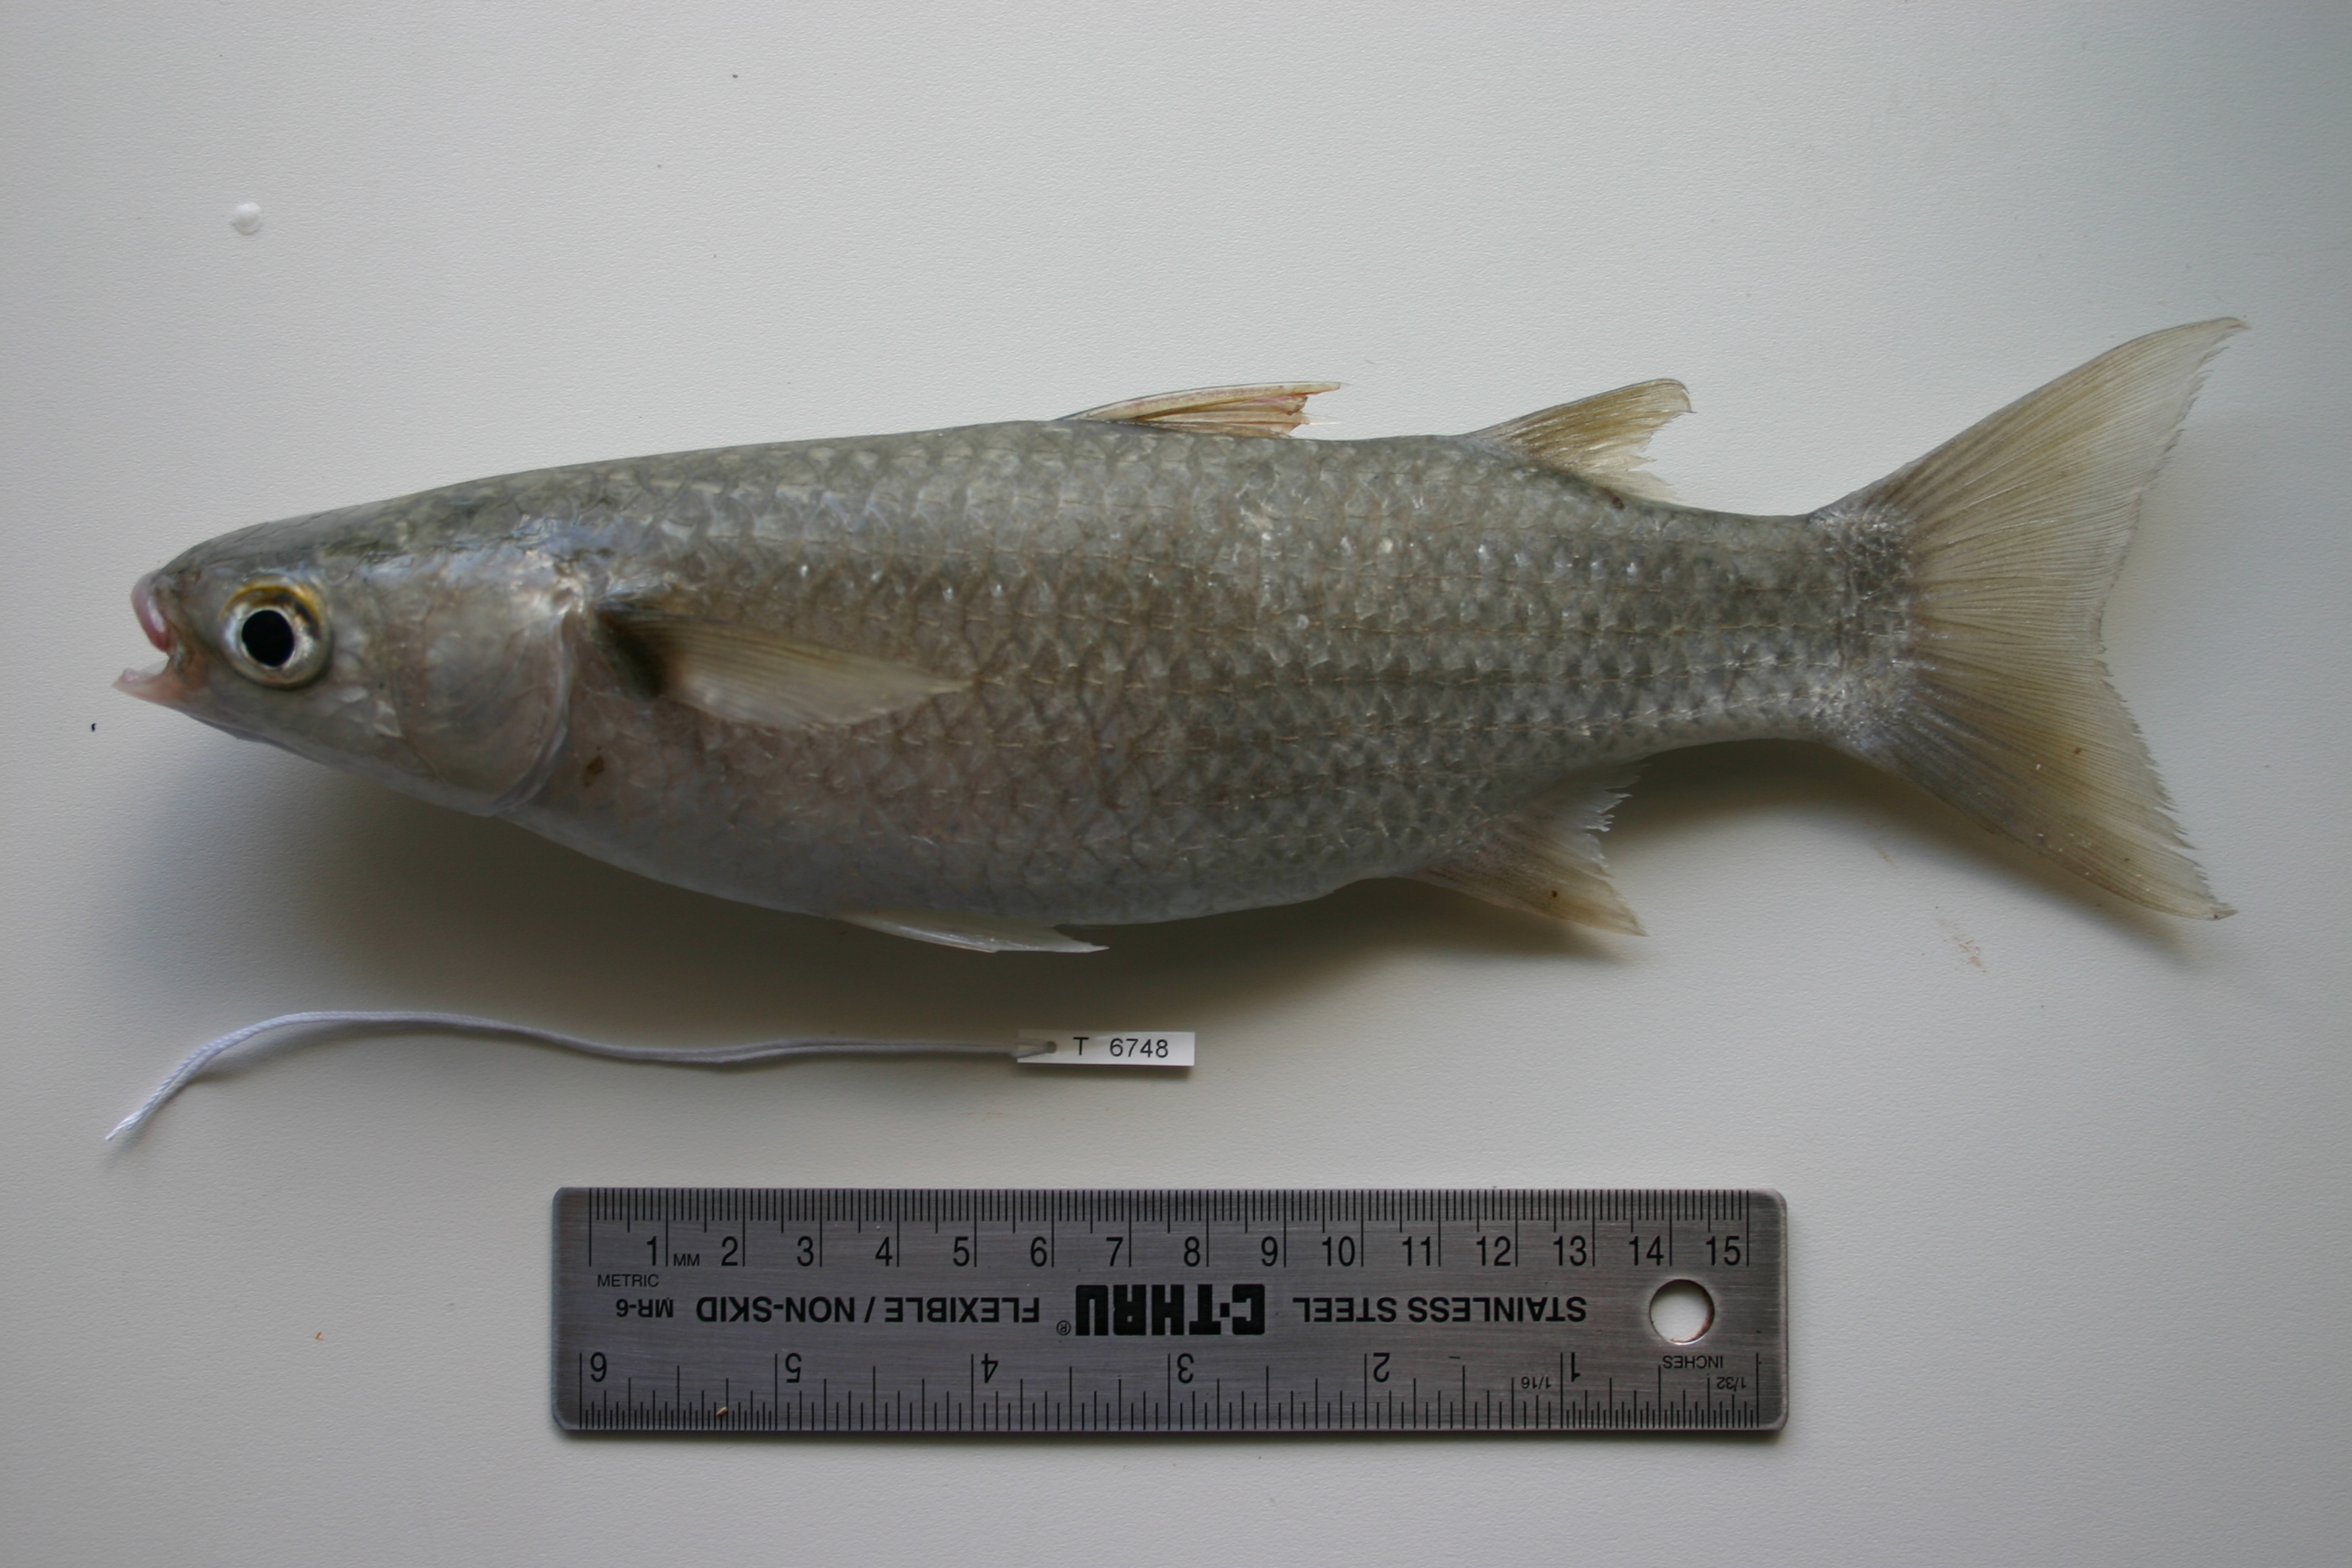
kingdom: Animalia
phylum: Chordata
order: Mugiliformes
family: Mugilidae
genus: Planiliza
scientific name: Planiliza macrolepis
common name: Largescale mullet
